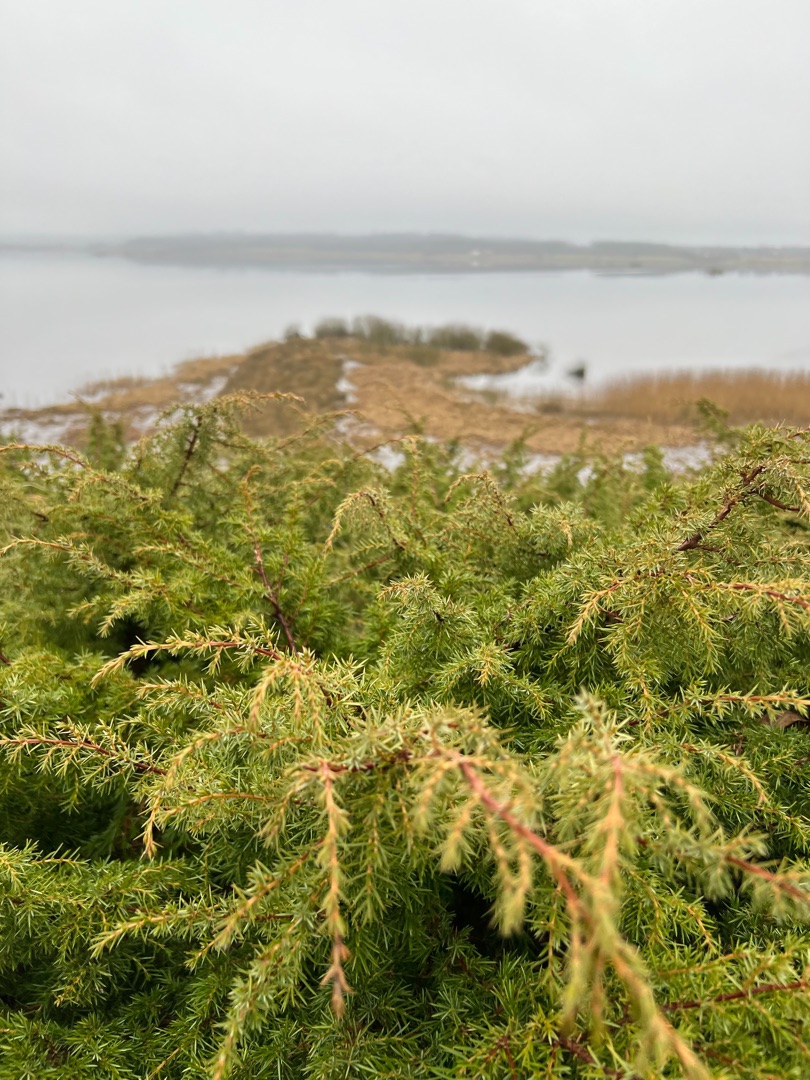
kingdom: Plantae
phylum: Tracheophyta
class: Pinopsida
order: Pinales
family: Cupressaceae
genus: Juniperus
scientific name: Juniperus communis
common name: Almindelig ene
